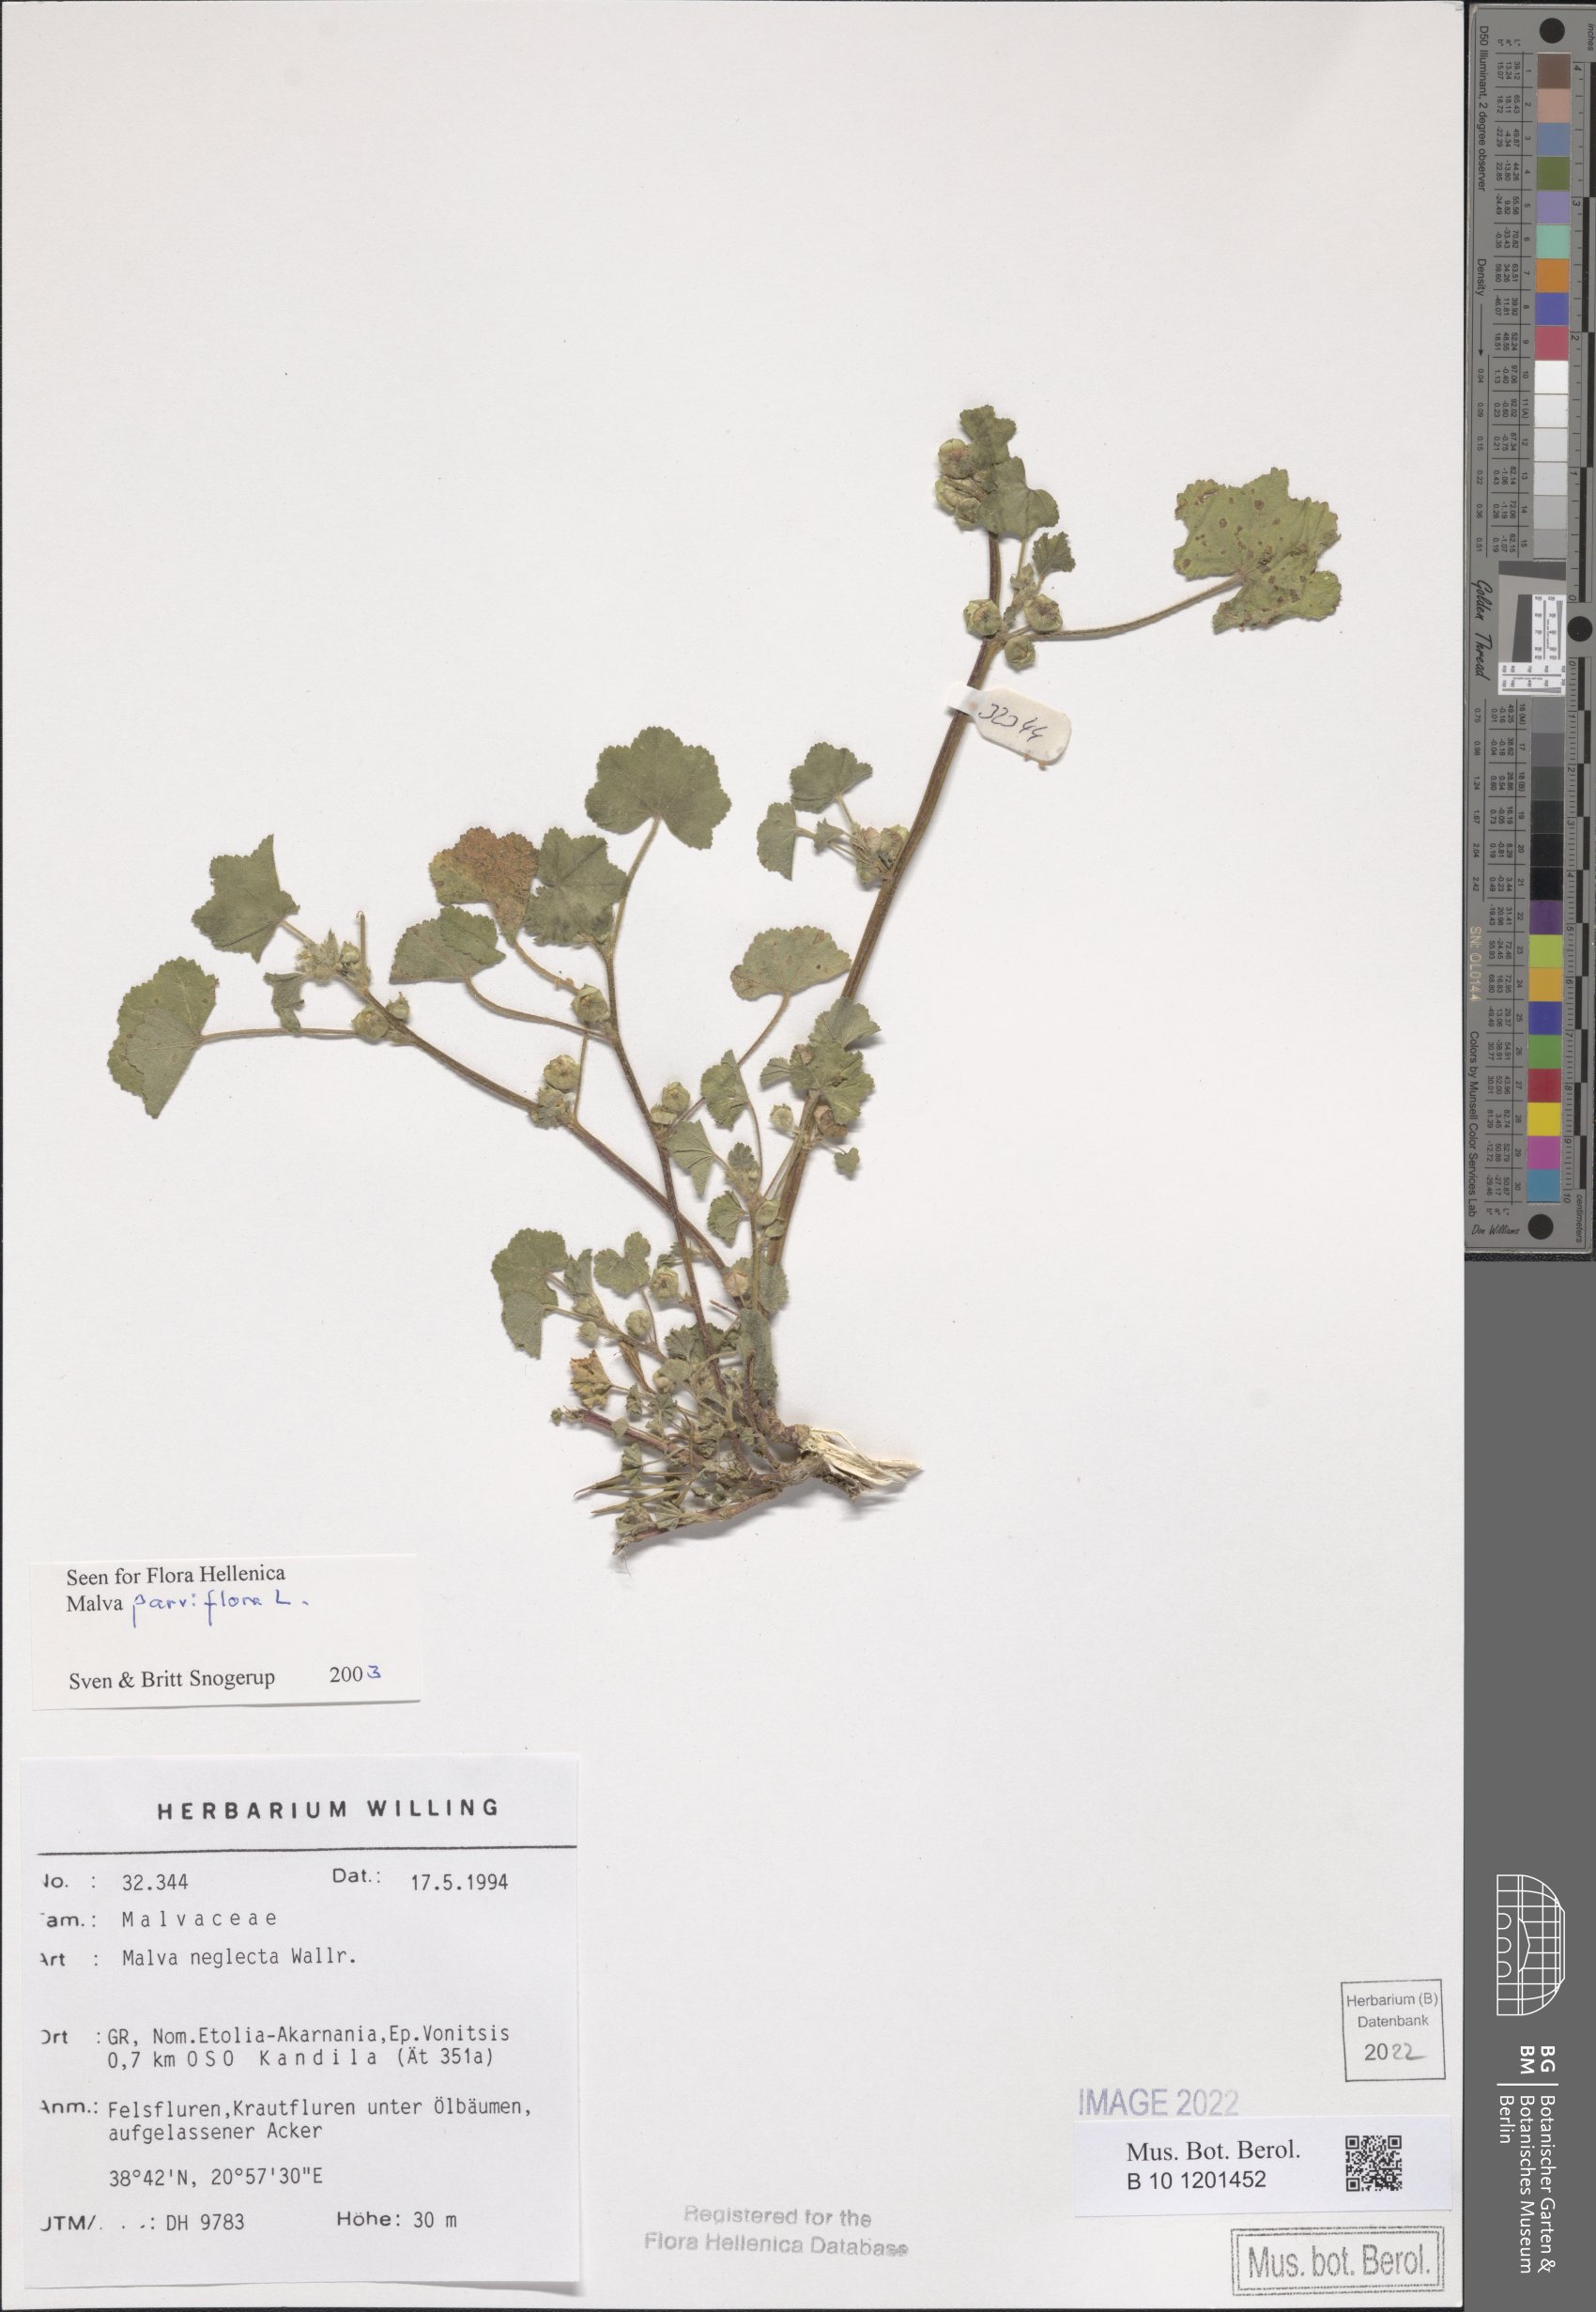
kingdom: Plantae
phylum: Tracheophyta
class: Magnoliopsida
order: Malvales
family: Malvaceae
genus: Malva
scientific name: Malva parviflora
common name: Least mallow
